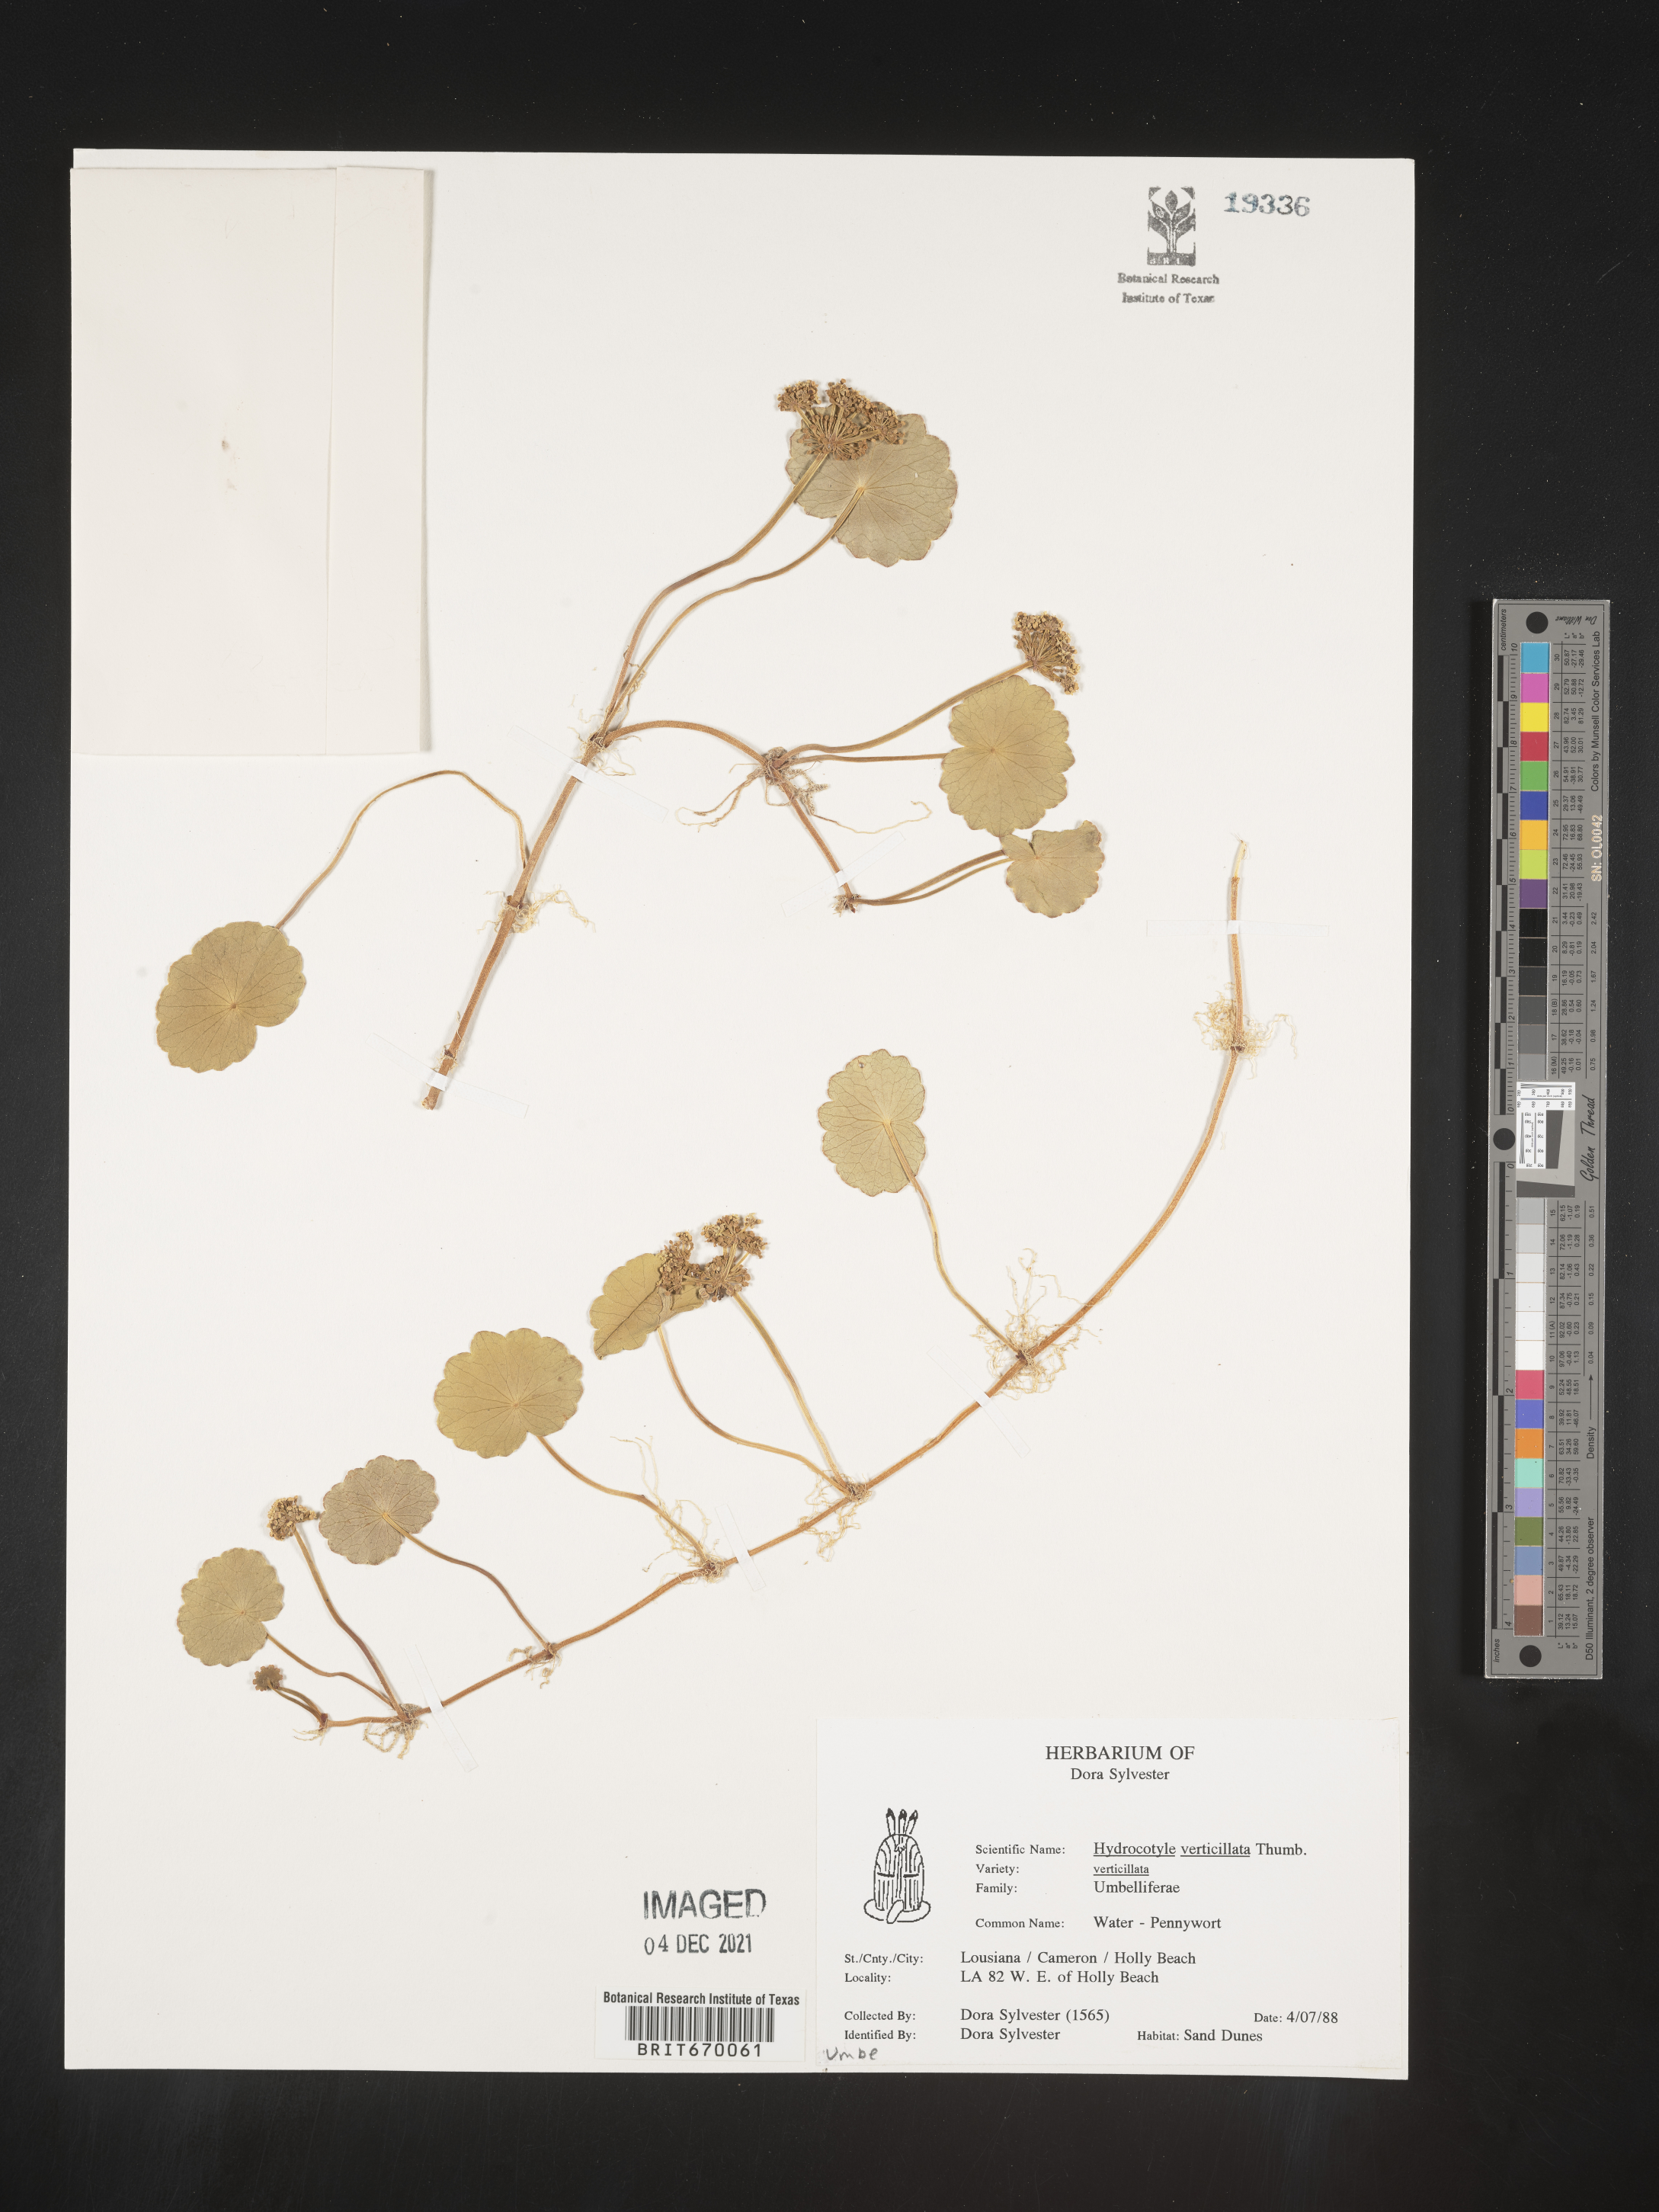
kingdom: Plantae
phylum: Tracheophyta
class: Magnoliopsida
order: Apiales
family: Araliaceae
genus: Hydrocotyle
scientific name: Hydrocotyle verticillata
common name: Whorled marshpennywort
